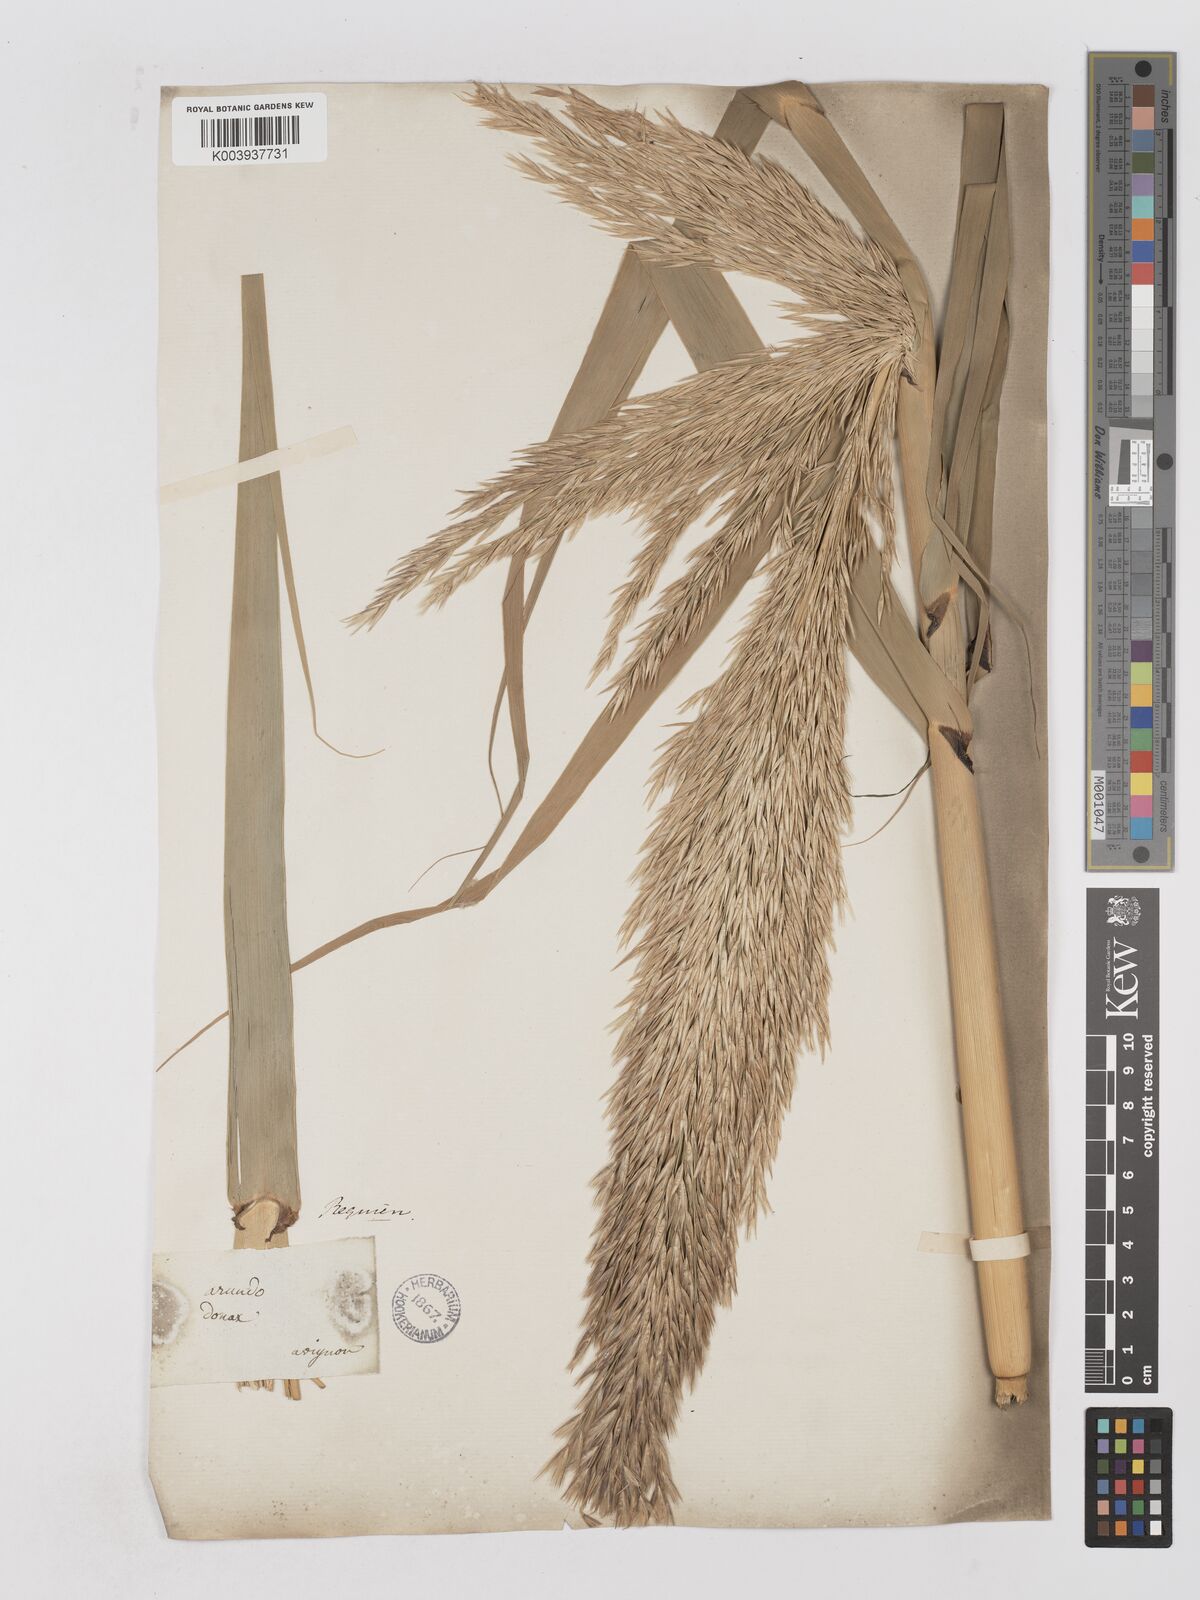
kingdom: Plantae
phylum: Tracheophyta
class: Liliopsida
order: Poales
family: Poaceae
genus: Arundo
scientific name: Arundo donax
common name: Giant reed
